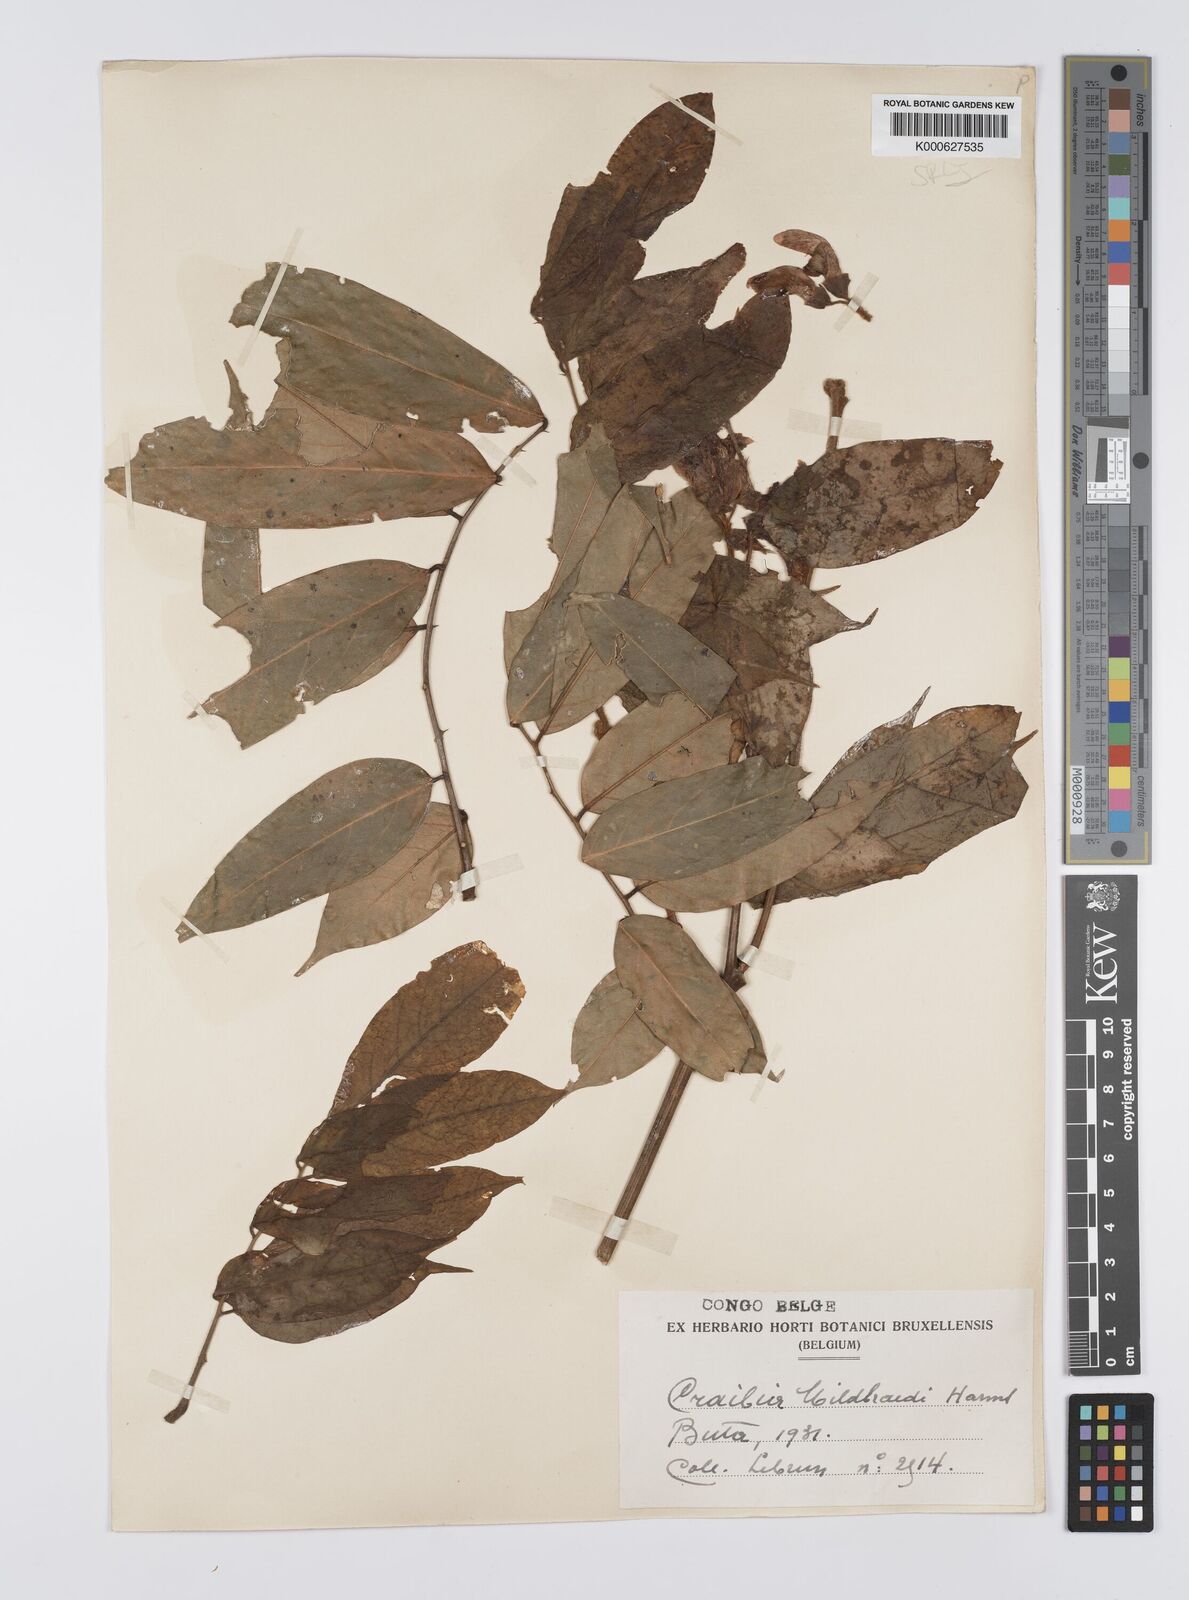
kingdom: Plantae
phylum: Tracheophyta
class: Magnoliopsida
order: Fabales
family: Fabaceae
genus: Craibia
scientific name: Craibia grandiflora
